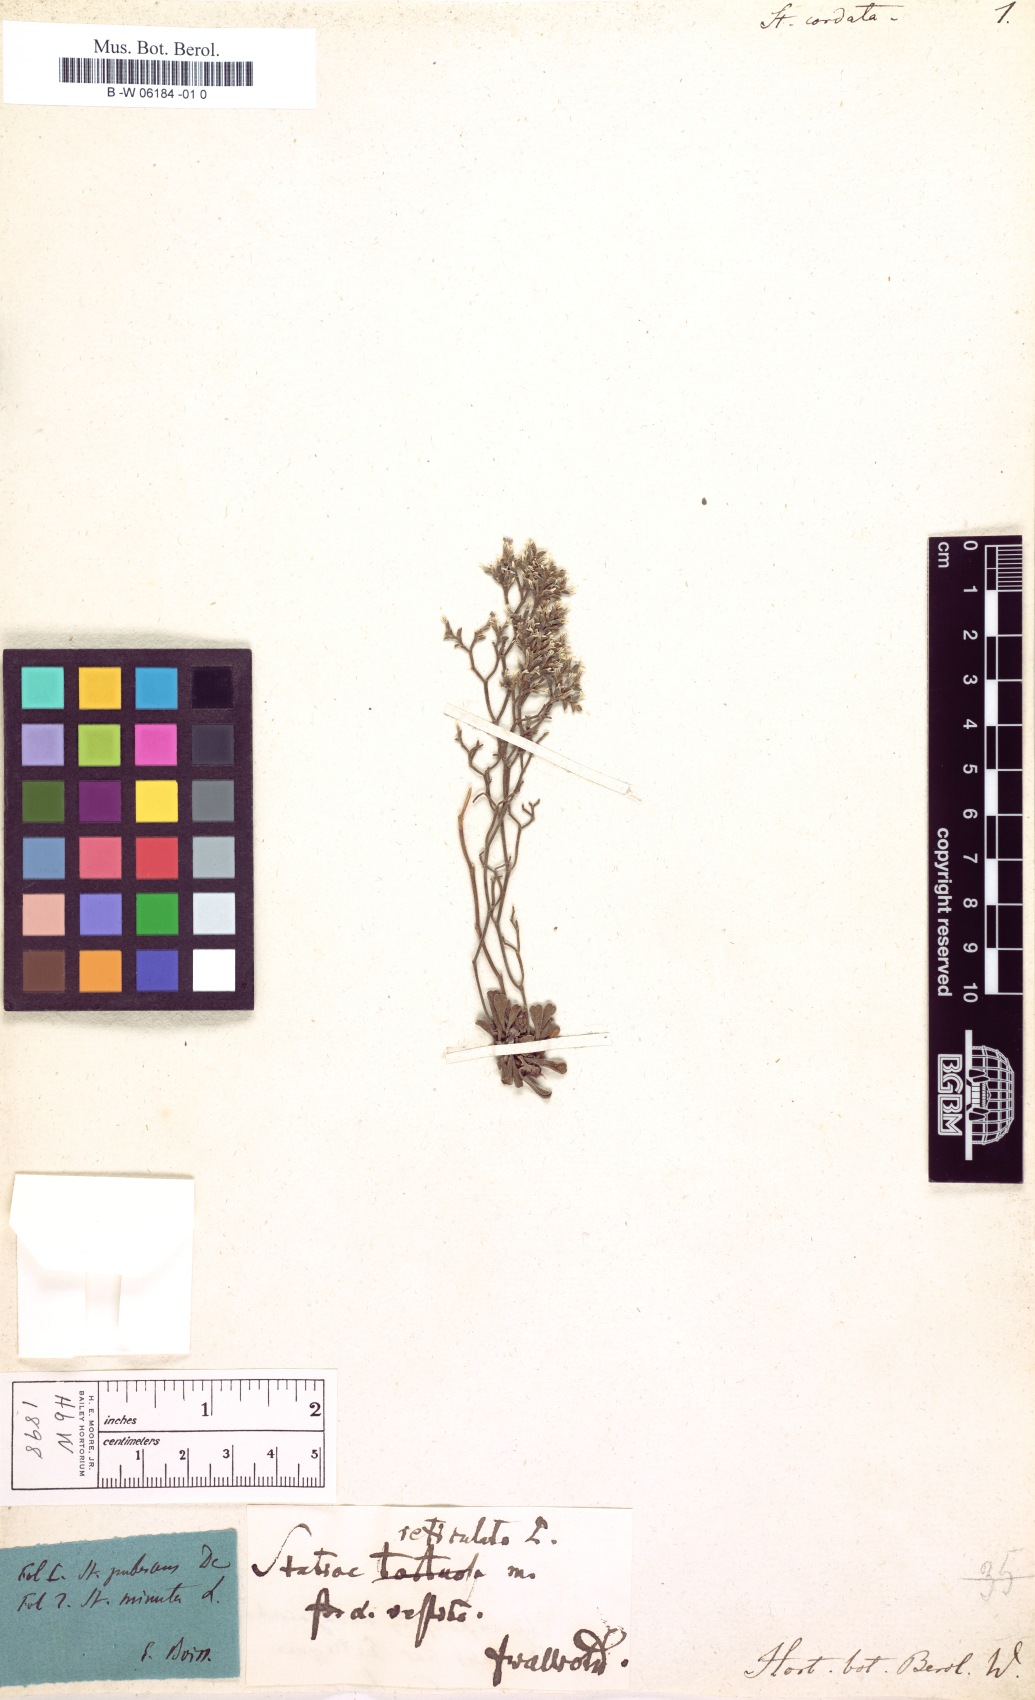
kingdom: Plantae
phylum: Tracheophyta
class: Magnoliopsida
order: Caryophyllales
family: Plumbaginaceae
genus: Limonium
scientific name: Limonium
